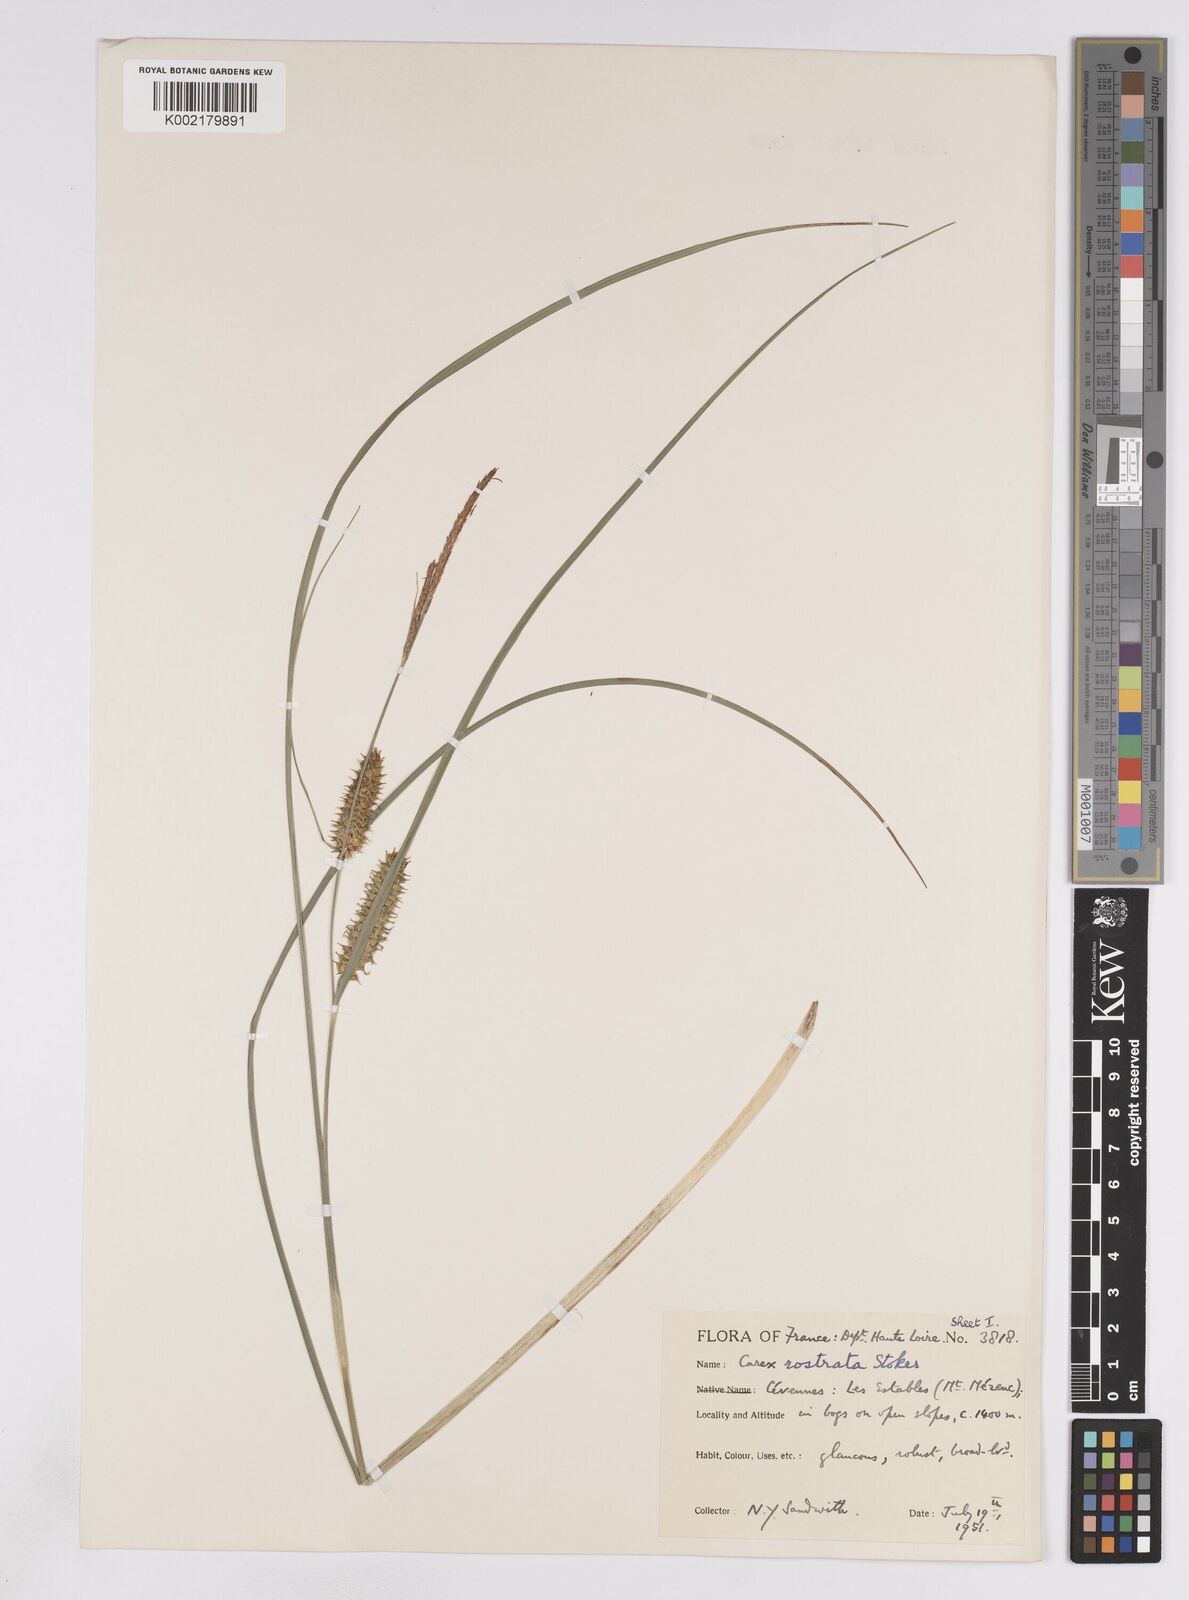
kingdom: Plantae
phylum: Tracheophyta
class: Liliopsida
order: Poales
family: Cyperaceae
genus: Carex
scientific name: Carex rostrata
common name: Bottle sedge
